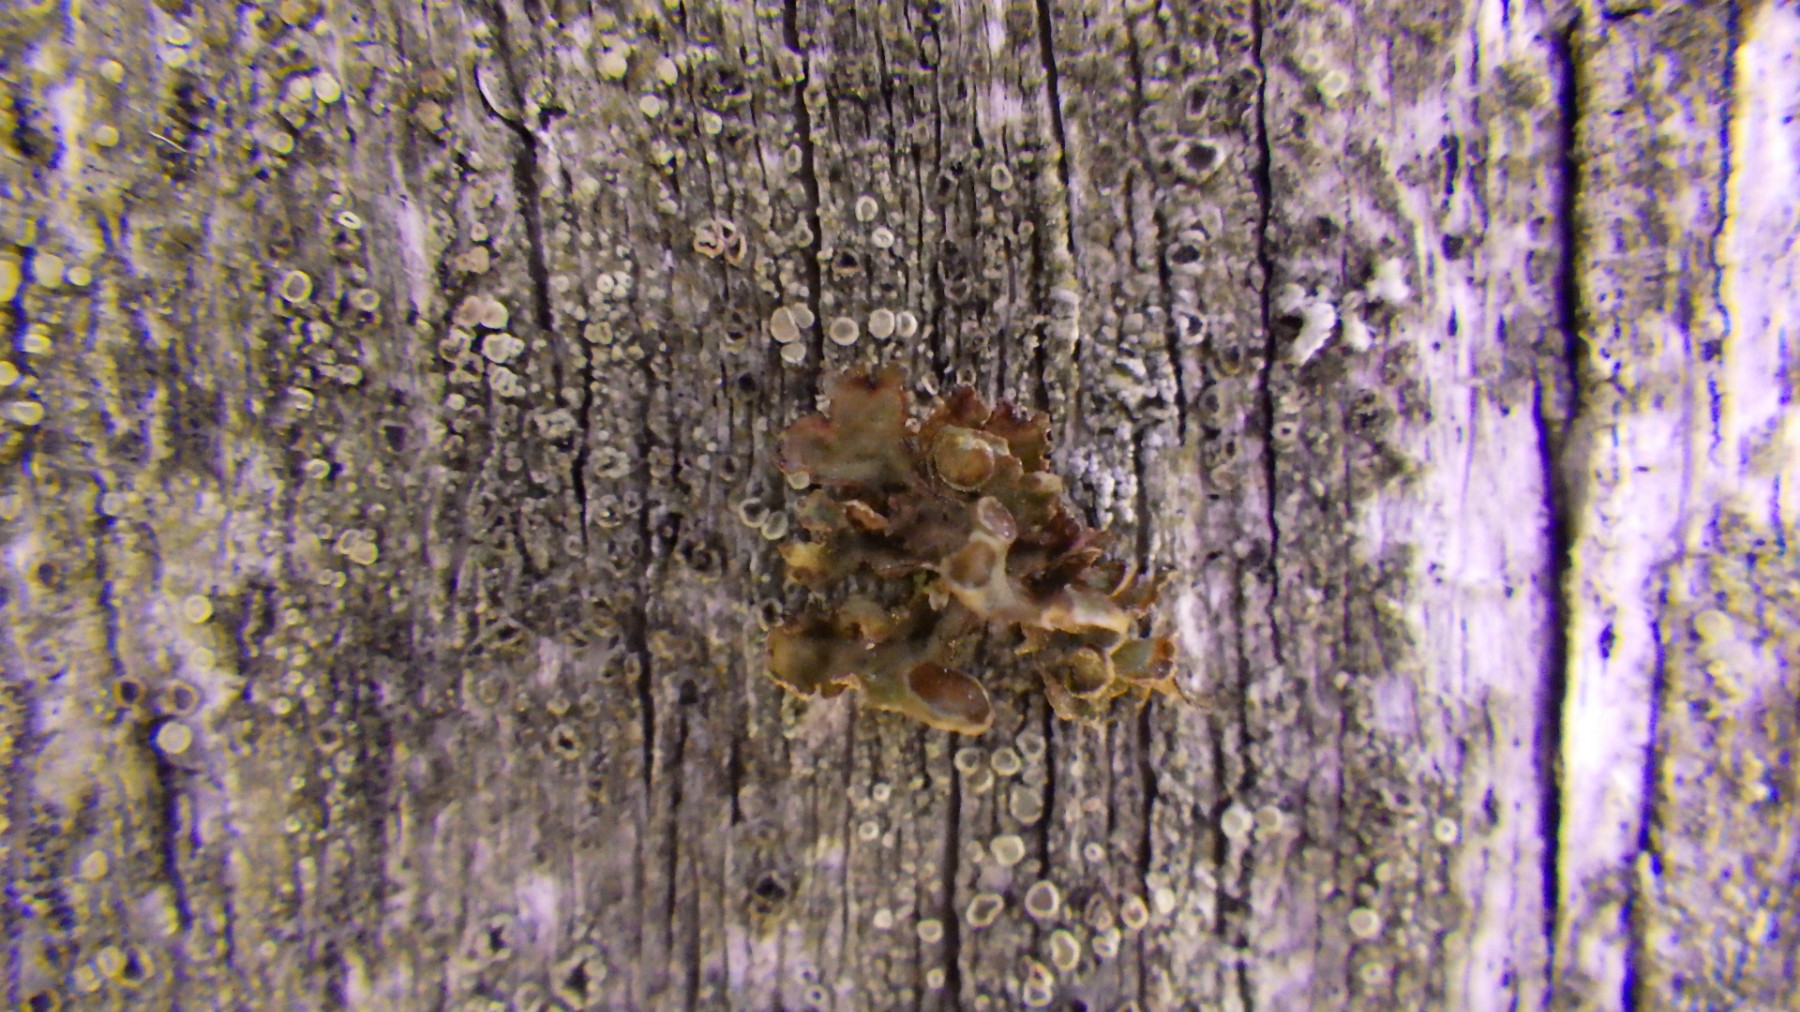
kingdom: Fungi
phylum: Ascomycota
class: Lecanoromycetes
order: Lecanorales
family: Parmeliaceae
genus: Cetraria
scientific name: Cetraria sepincola
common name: tue-kruslav
